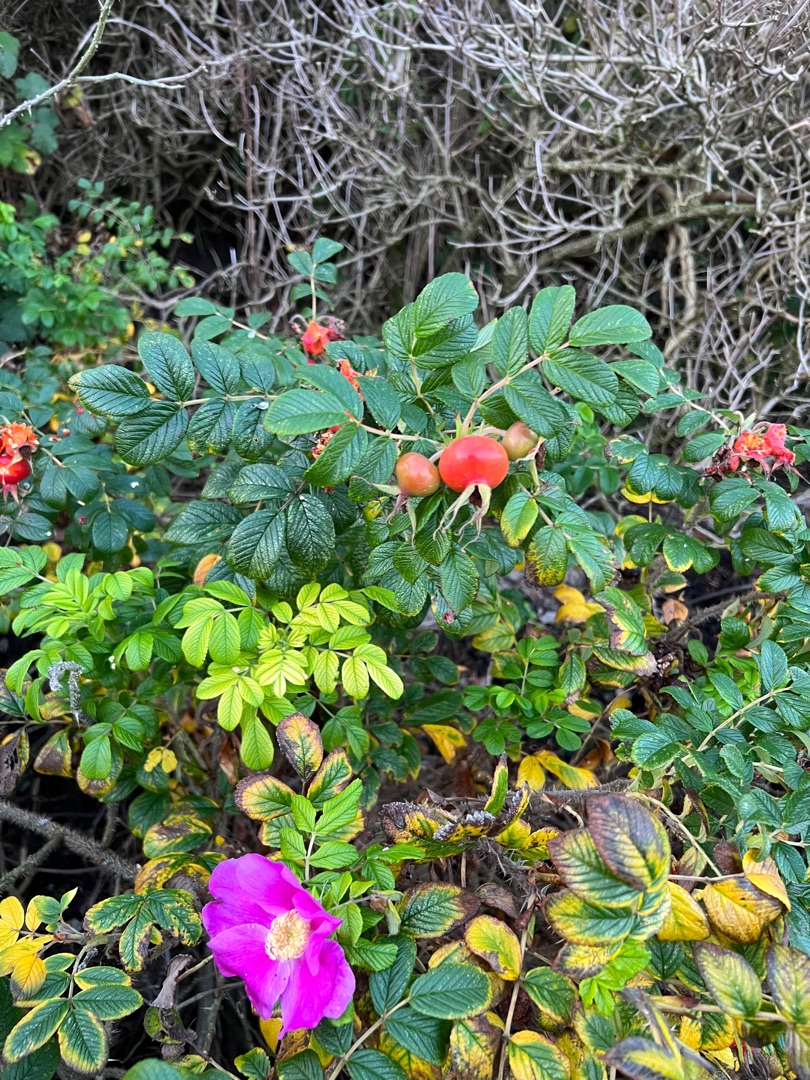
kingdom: Plantae
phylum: Tracheophyta
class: Magnoliopsida
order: Rosales
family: Rosaceae
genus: Rosa
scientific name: Rosa rugosa
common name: Rynket rose
